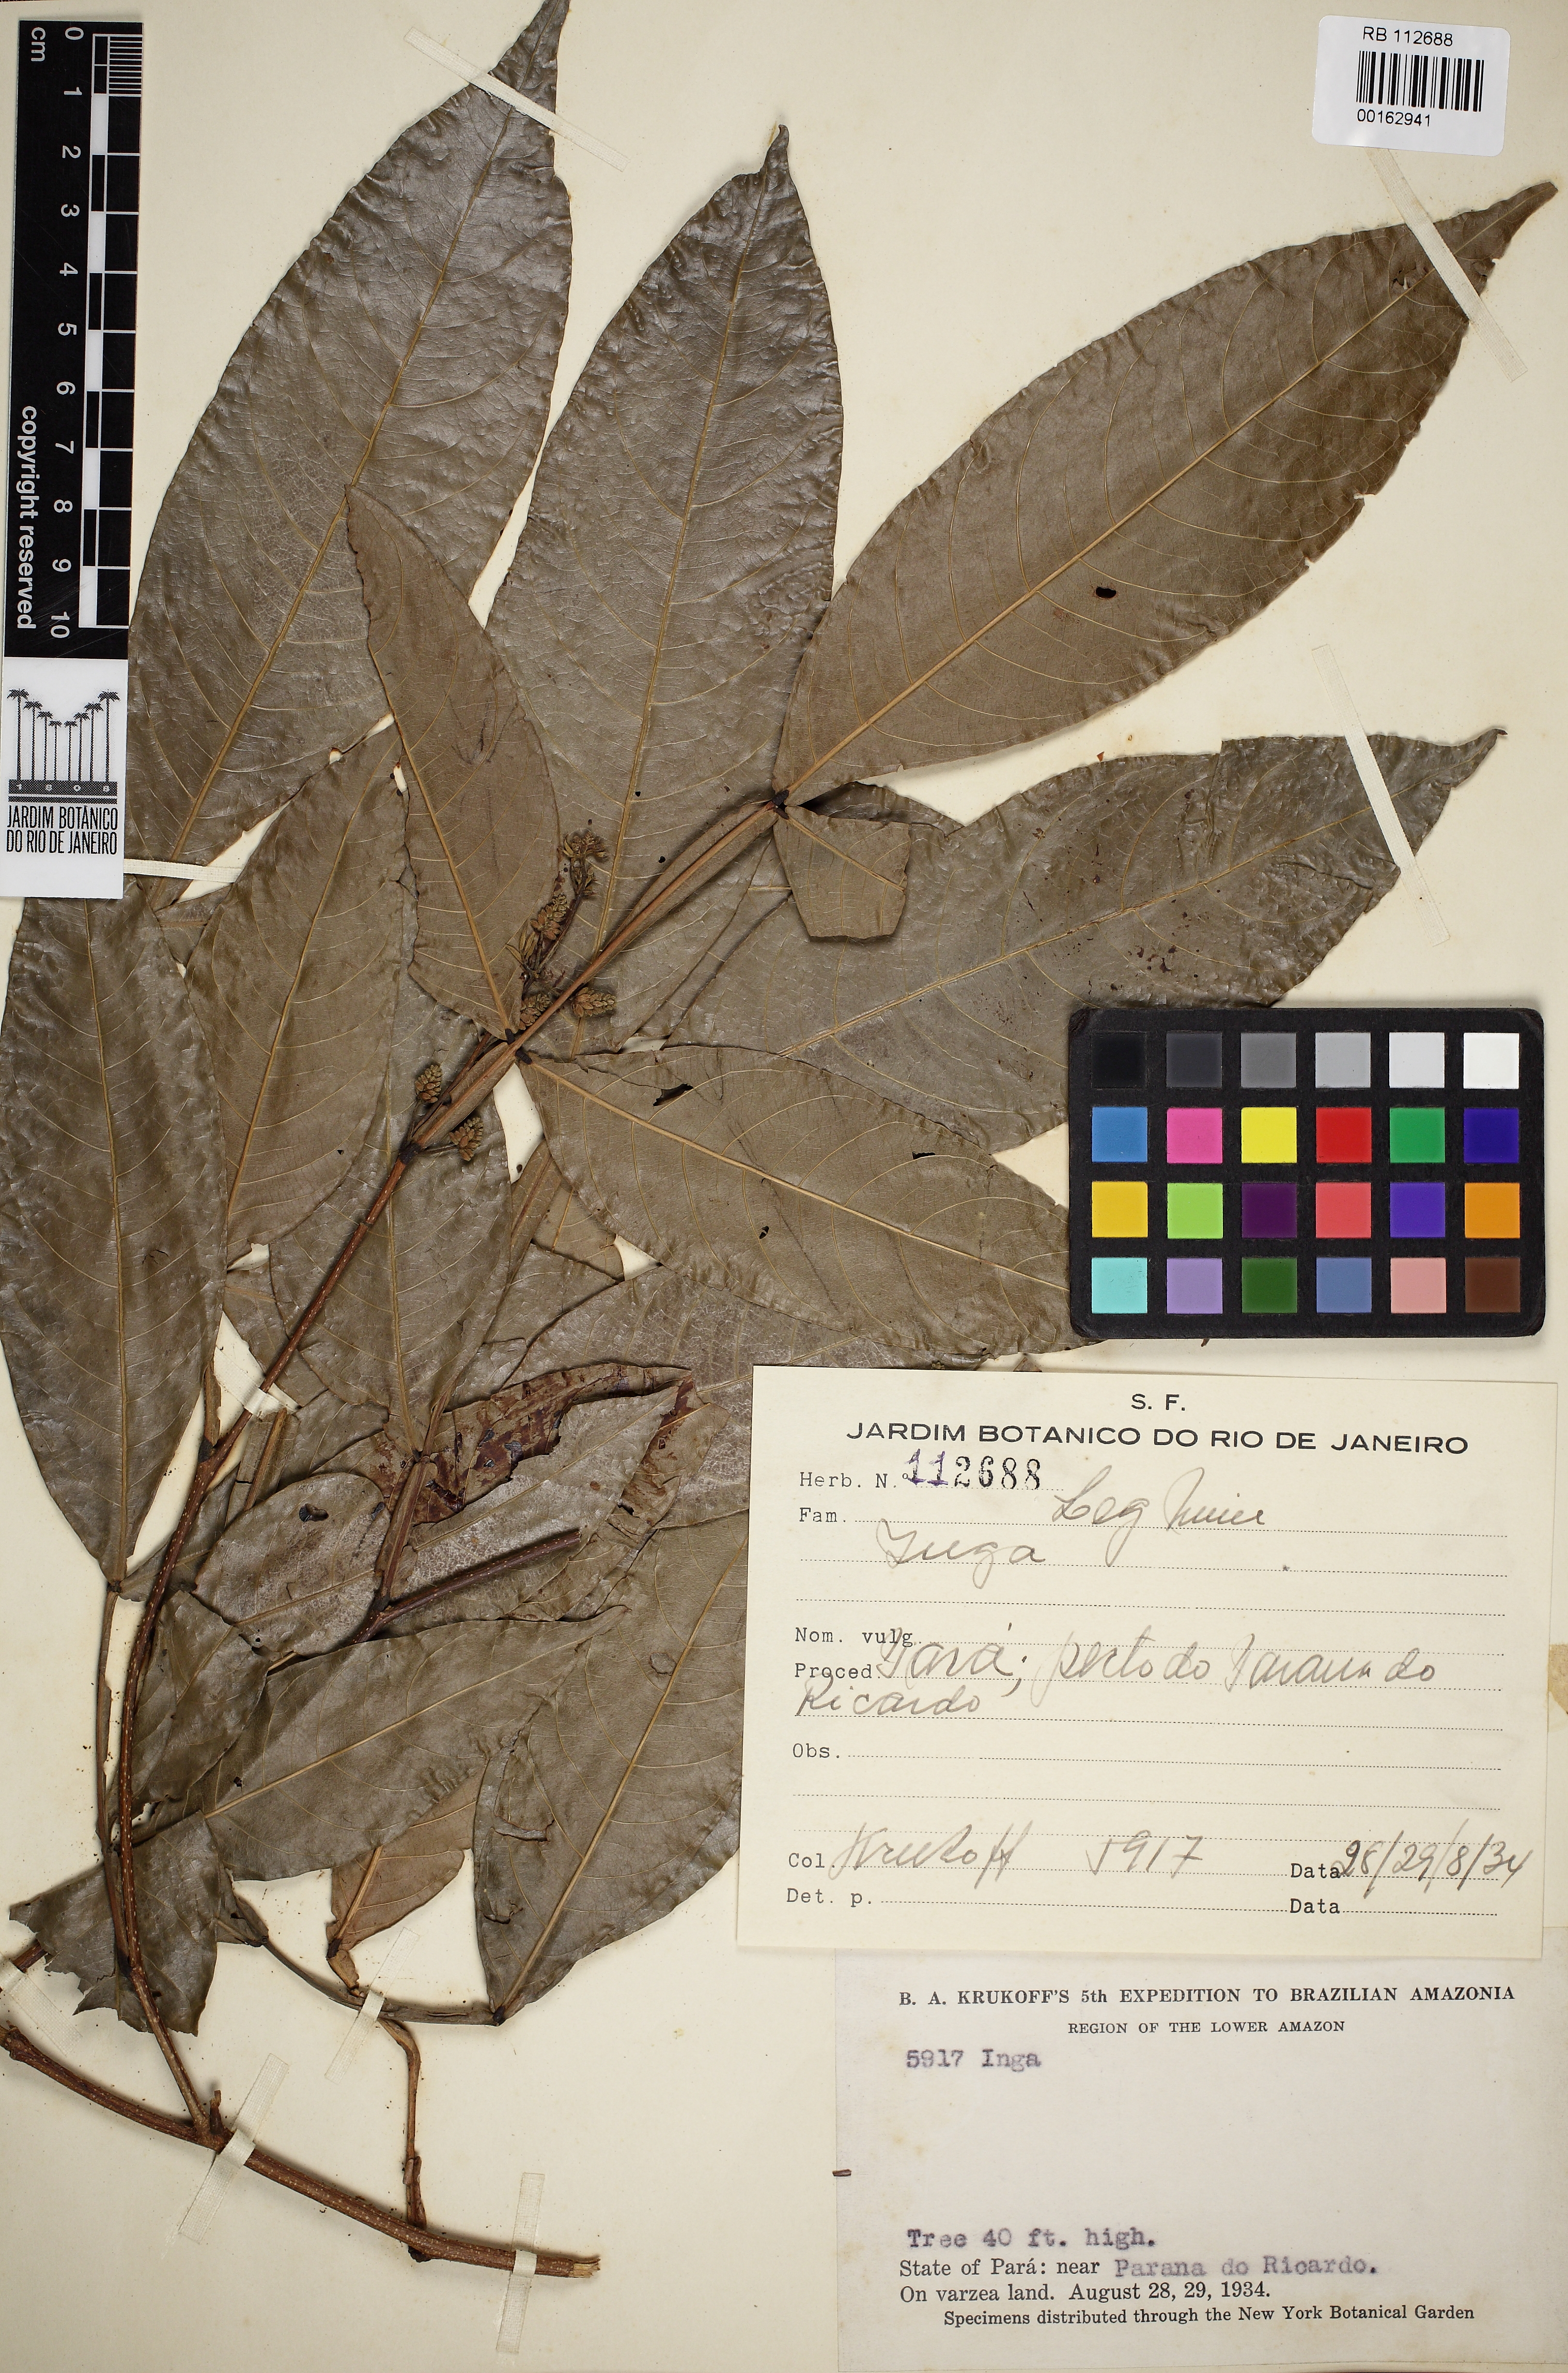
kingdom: Plantae
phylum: Tracheophyta
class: Magnoliopsida
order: Fabales
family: Fabaceae
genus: Inga
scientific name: Inga
